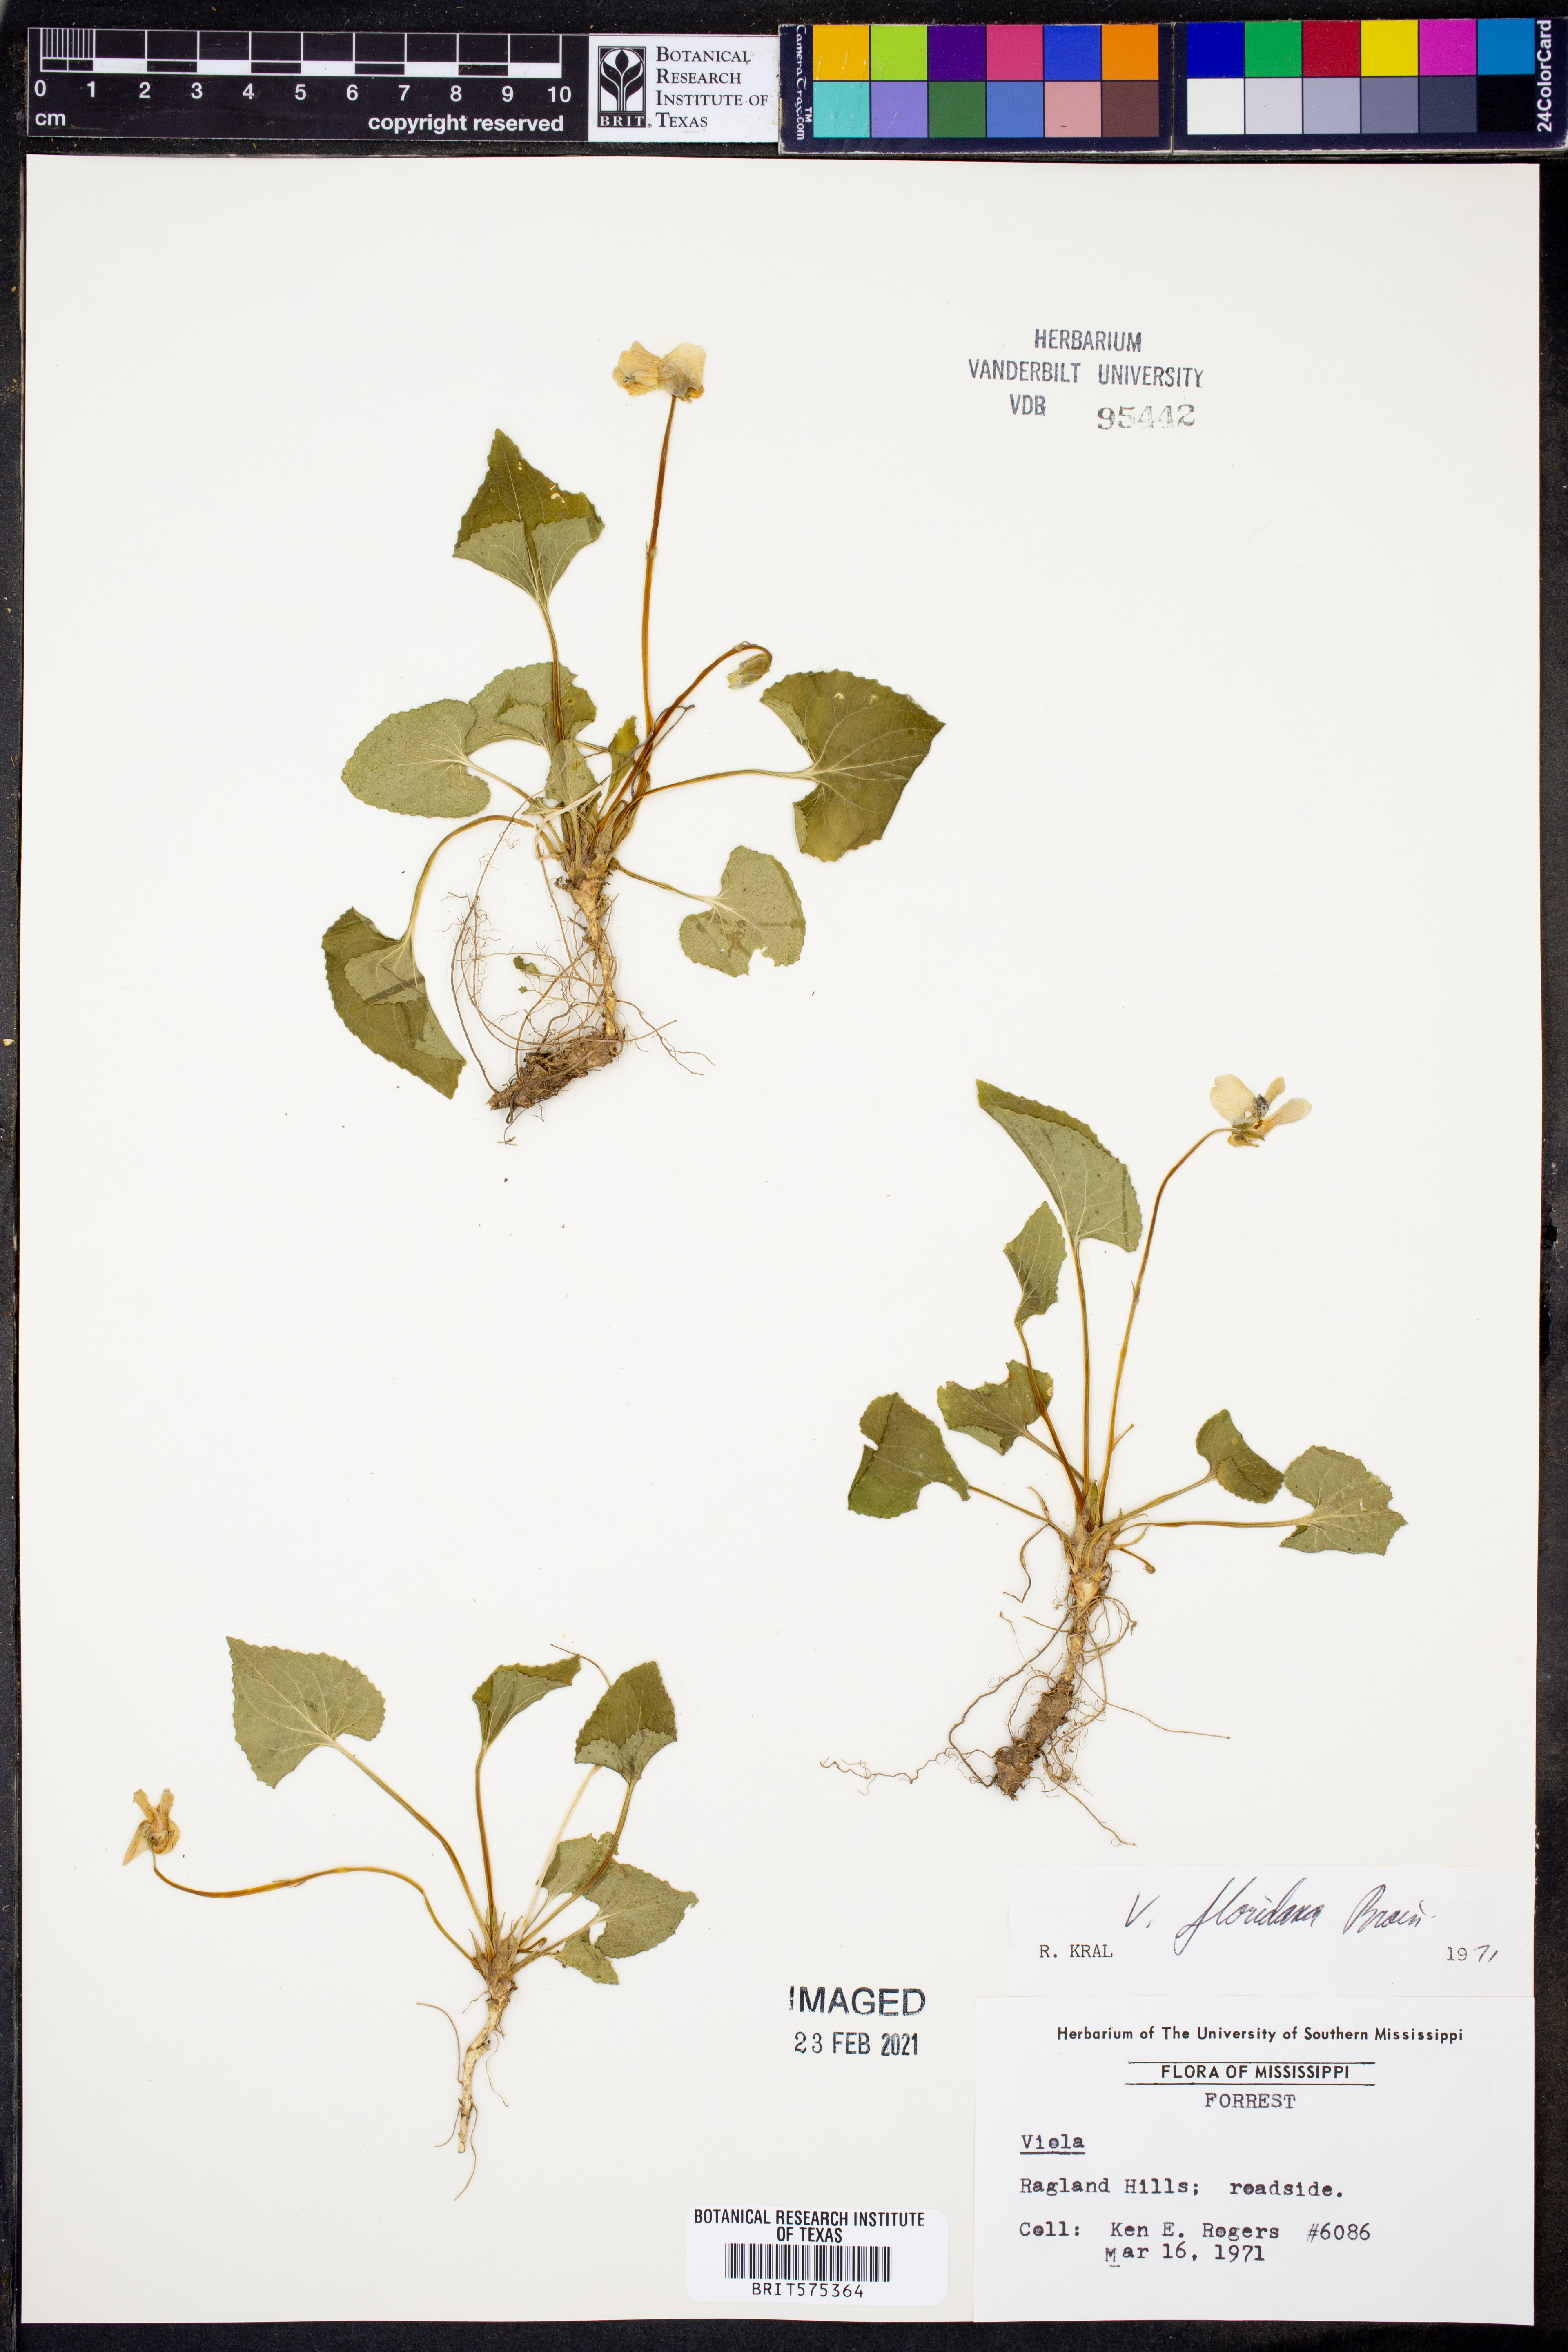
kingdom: Plantae
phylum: Tracheophyta
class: Magnoliopsida
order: Malpighiales
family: Violaceae
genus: Viola
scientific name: Viola floridana
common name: Florida violet
